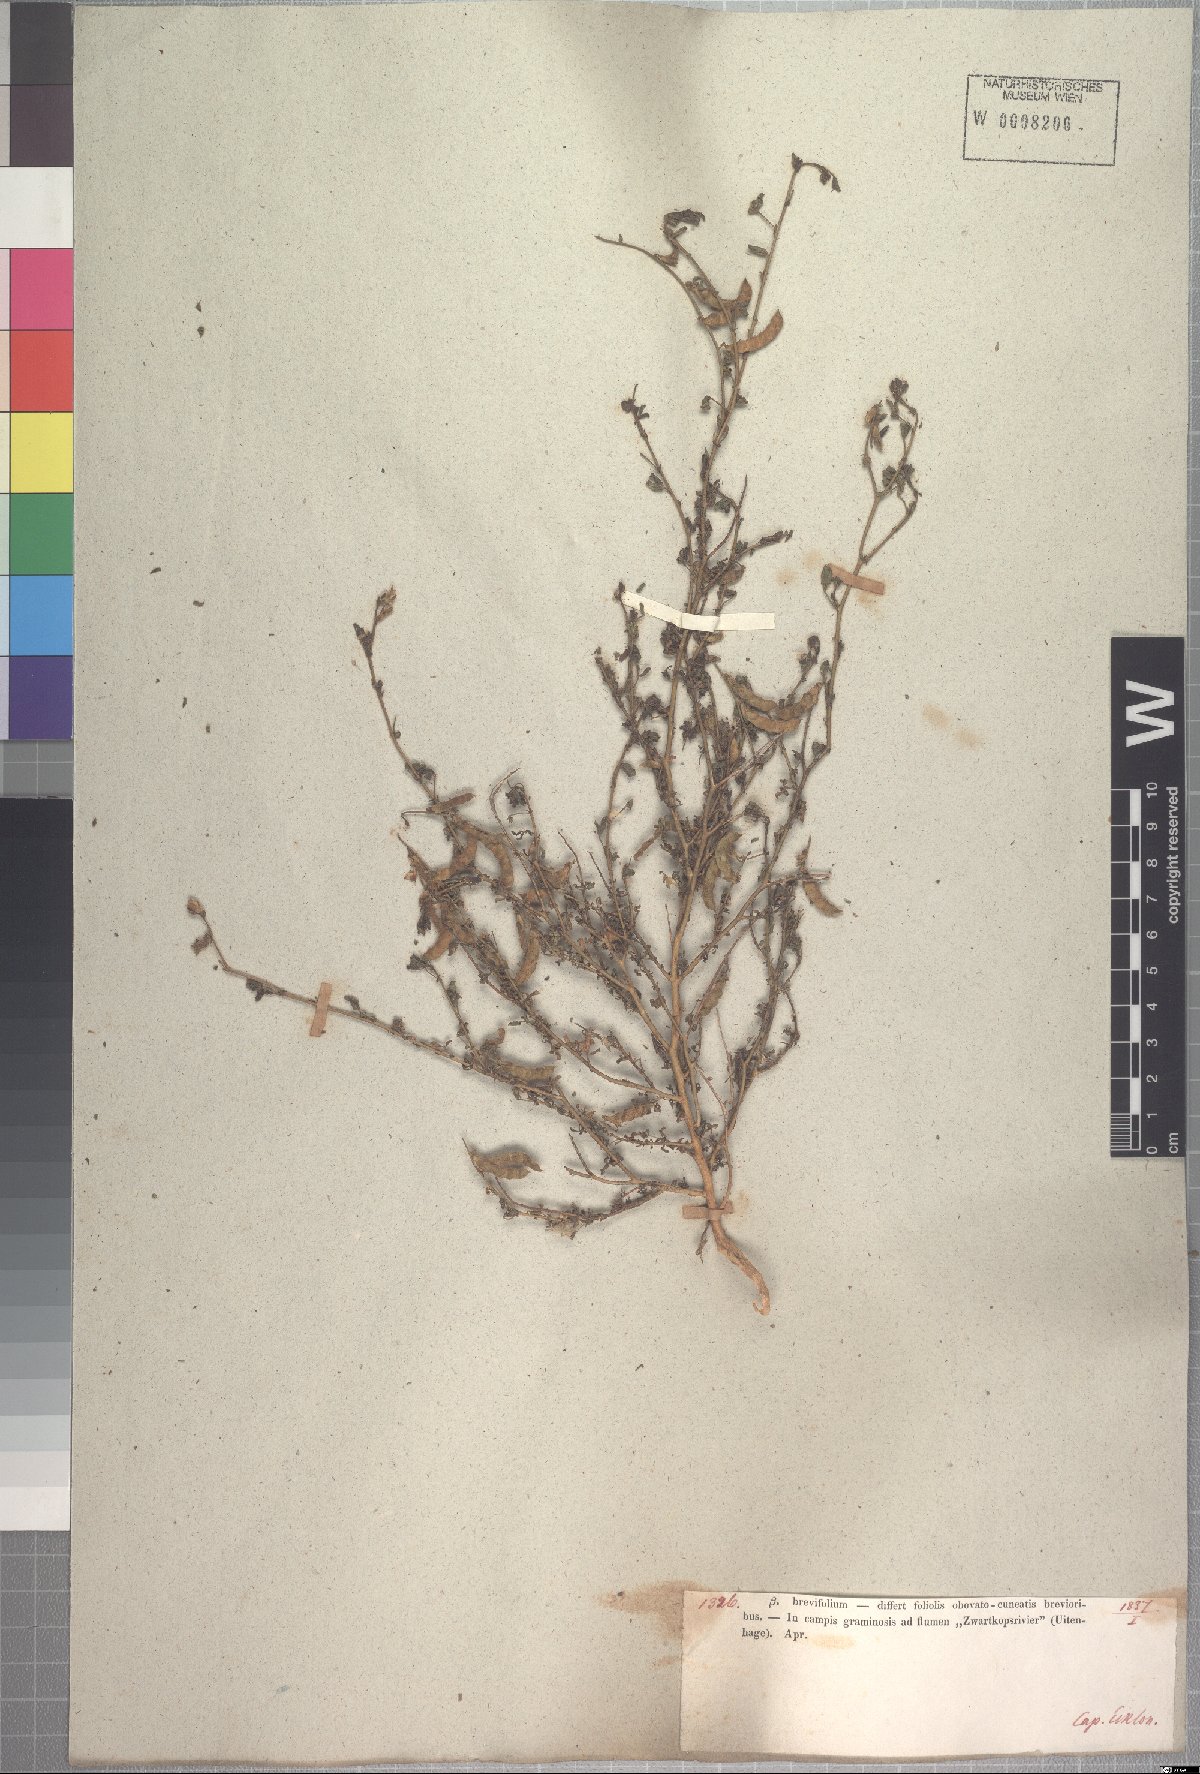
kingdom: Plantae
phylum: Tracheophyta
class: Magnoliopsida
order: Fabales
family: Fabaceae
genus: Melolobium
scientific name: Melolobium adenodes
